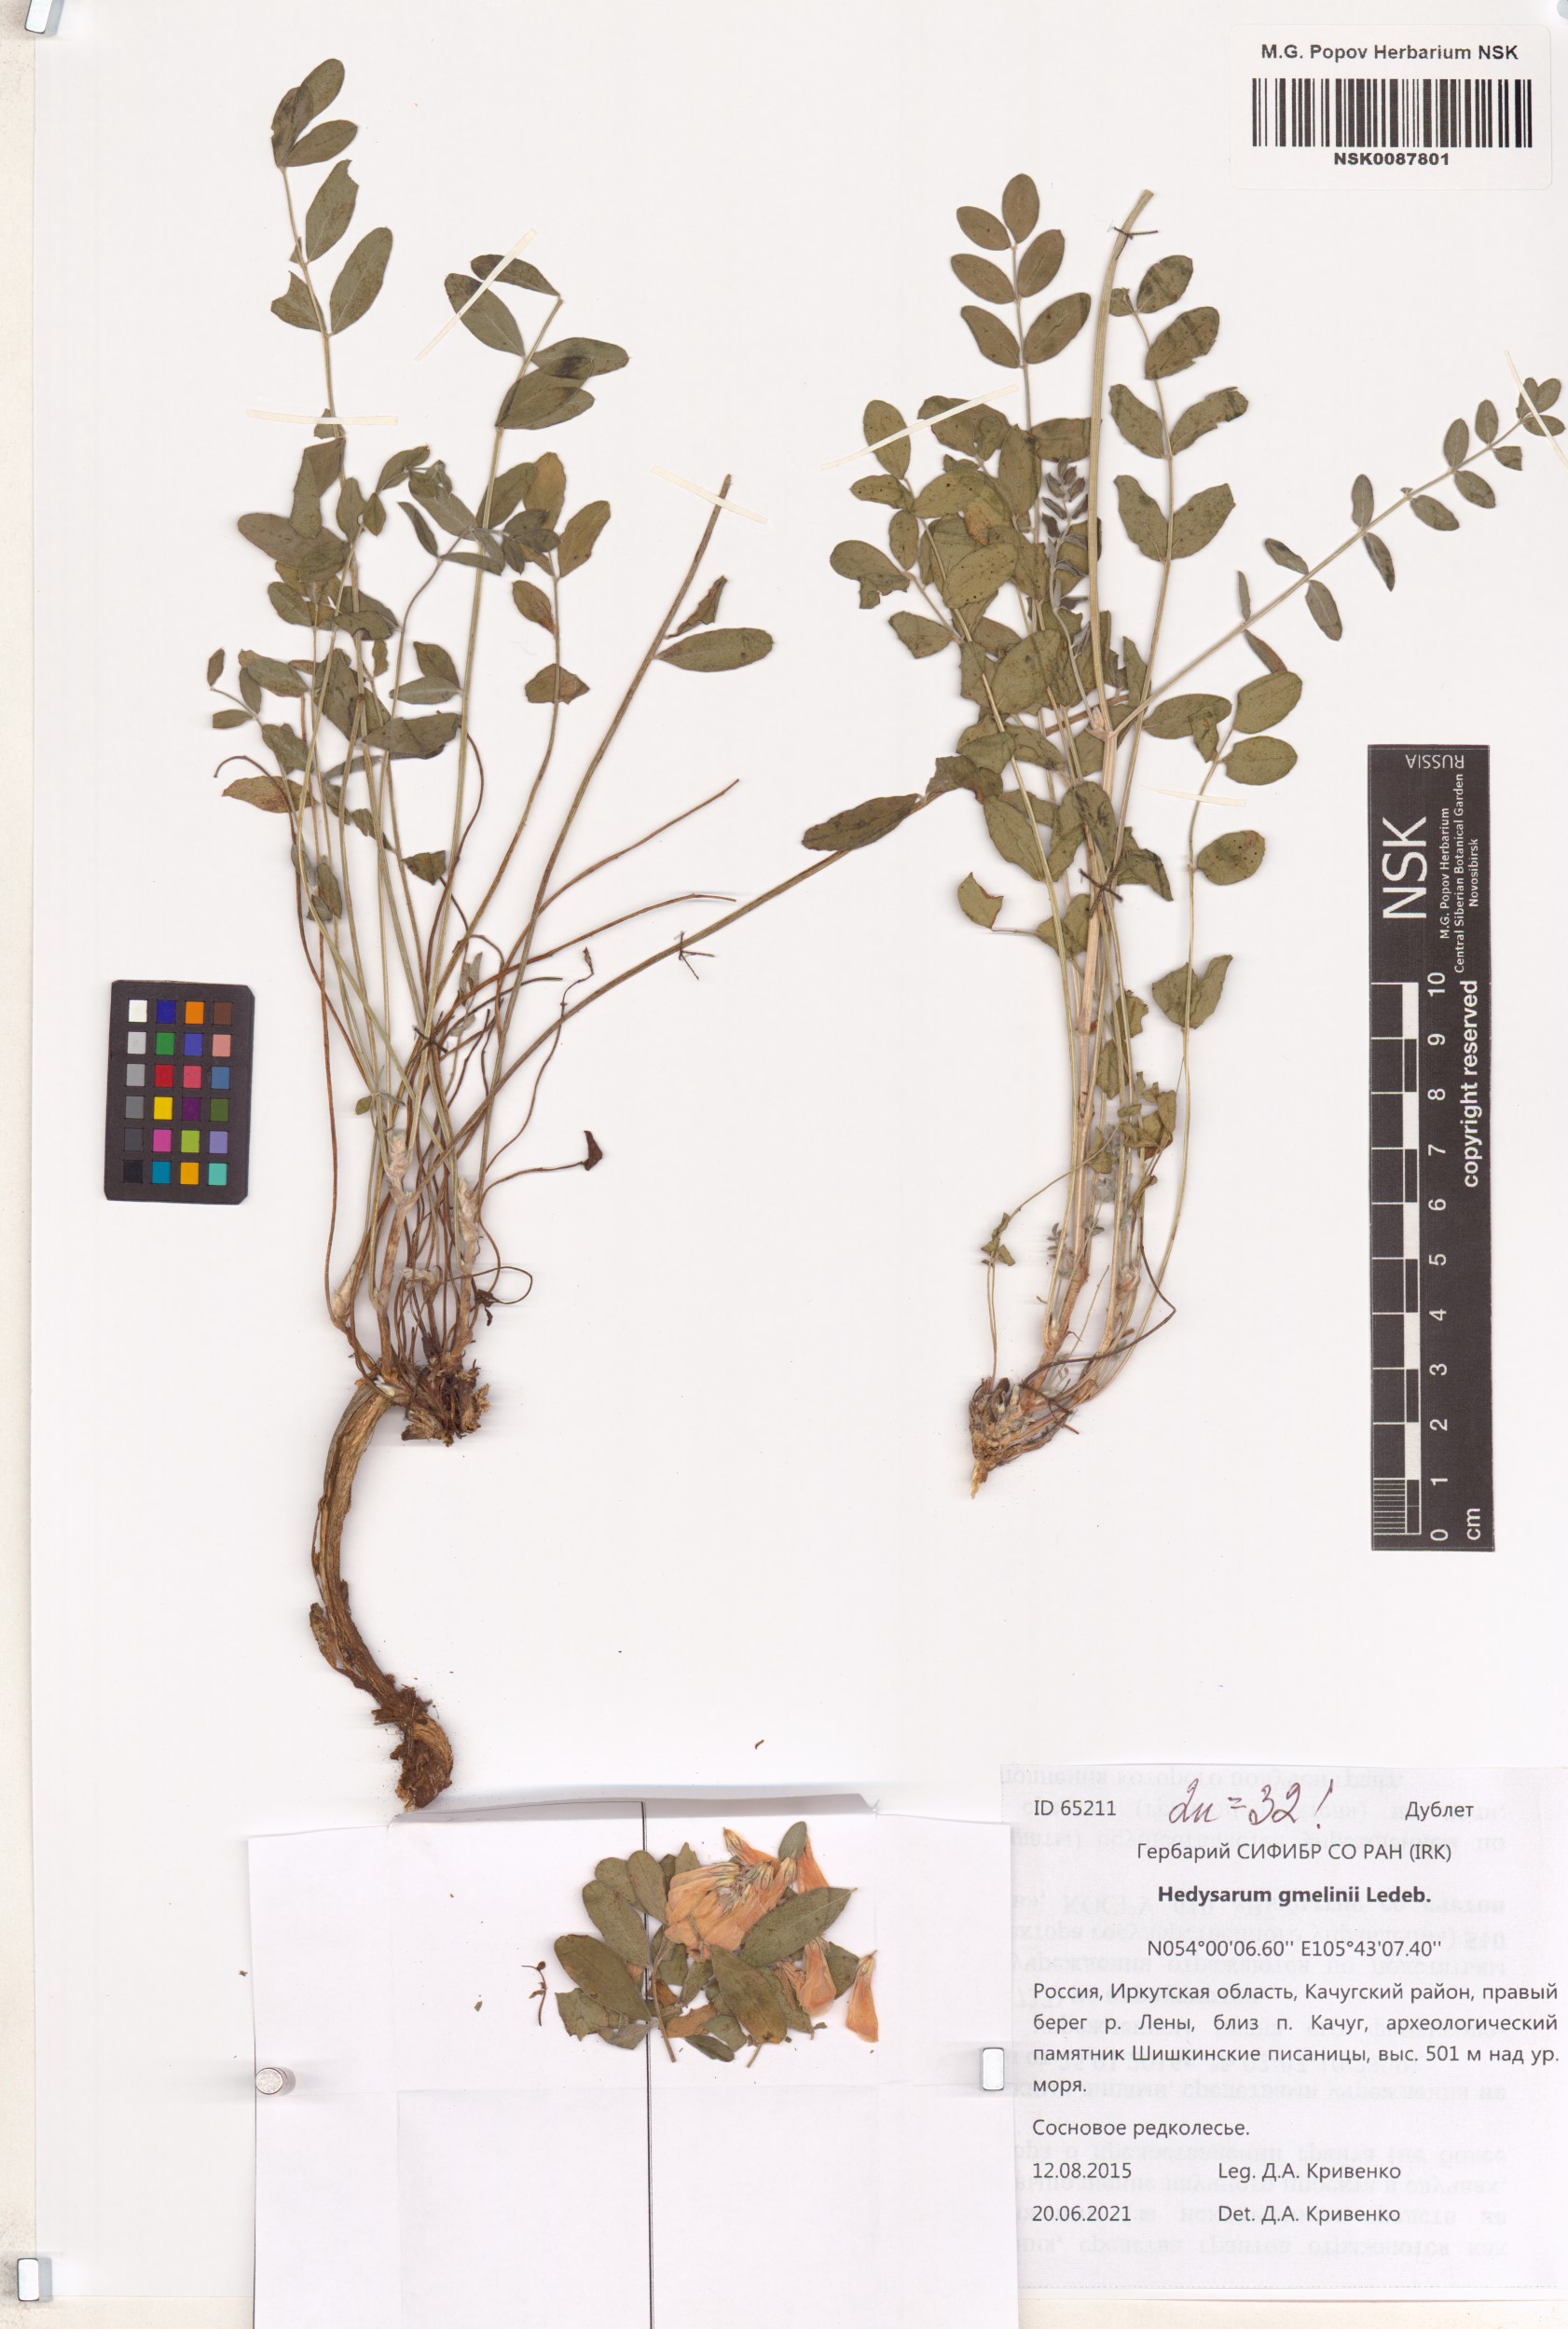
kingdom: Plantae
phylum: Tracheophyta
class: Magnoliopsida
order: Fabales
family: Fabaceae
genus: Hedysarum
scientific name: Hedysarum gmelinii
